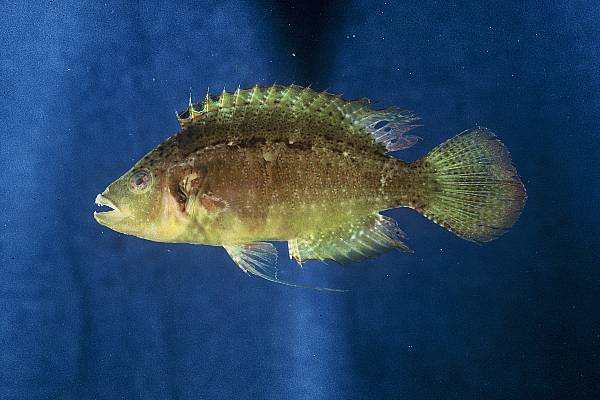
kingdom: Animalia
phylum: Chordata
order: Perciformes
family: Labridae
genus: Pteragogus
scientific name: Pteragogus trispilus
